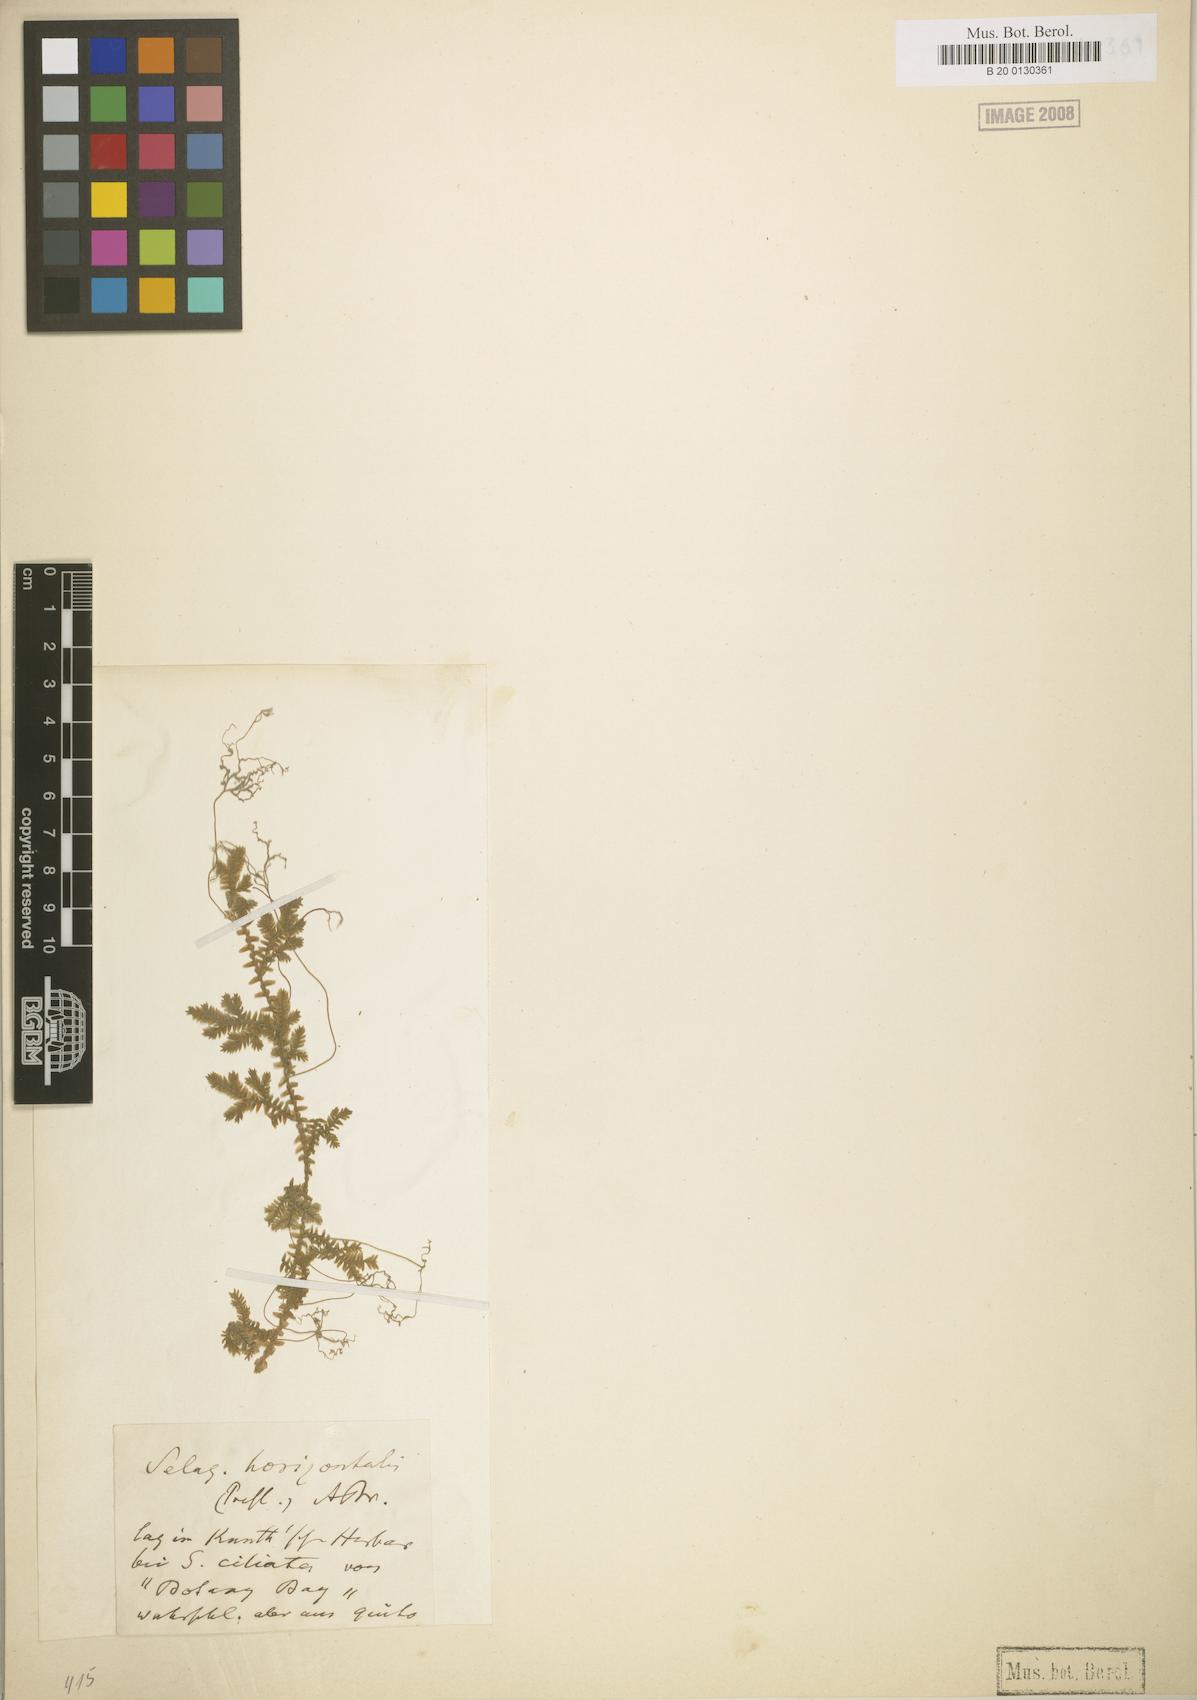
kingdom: Plantae
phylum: Tracheophyta
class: Lycopodiopsida
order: Selaginellales
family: Selaginellaceae
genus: Selaginella
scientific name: Selaginella horizontalis
